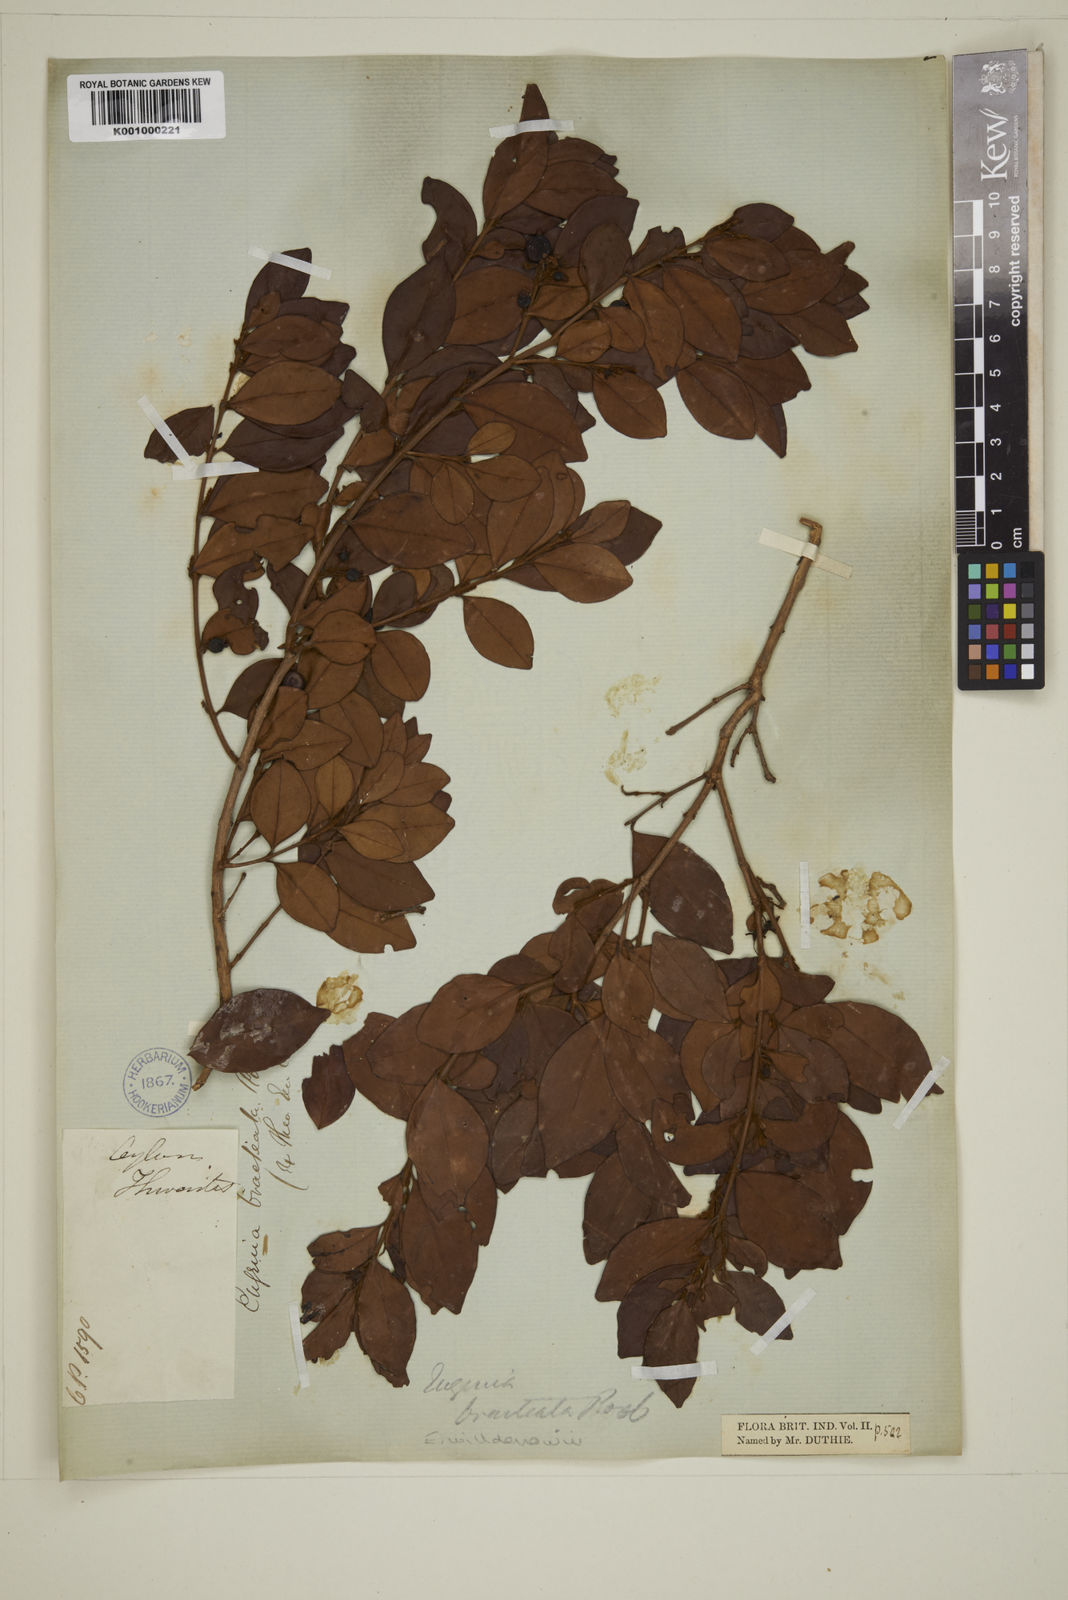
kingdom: Plantae
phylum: Tracheophyta
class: Magnoliopsida
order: Myrtales
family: Myrtaceae
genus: Eugenia
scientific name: Eugenia pseudopsidium
